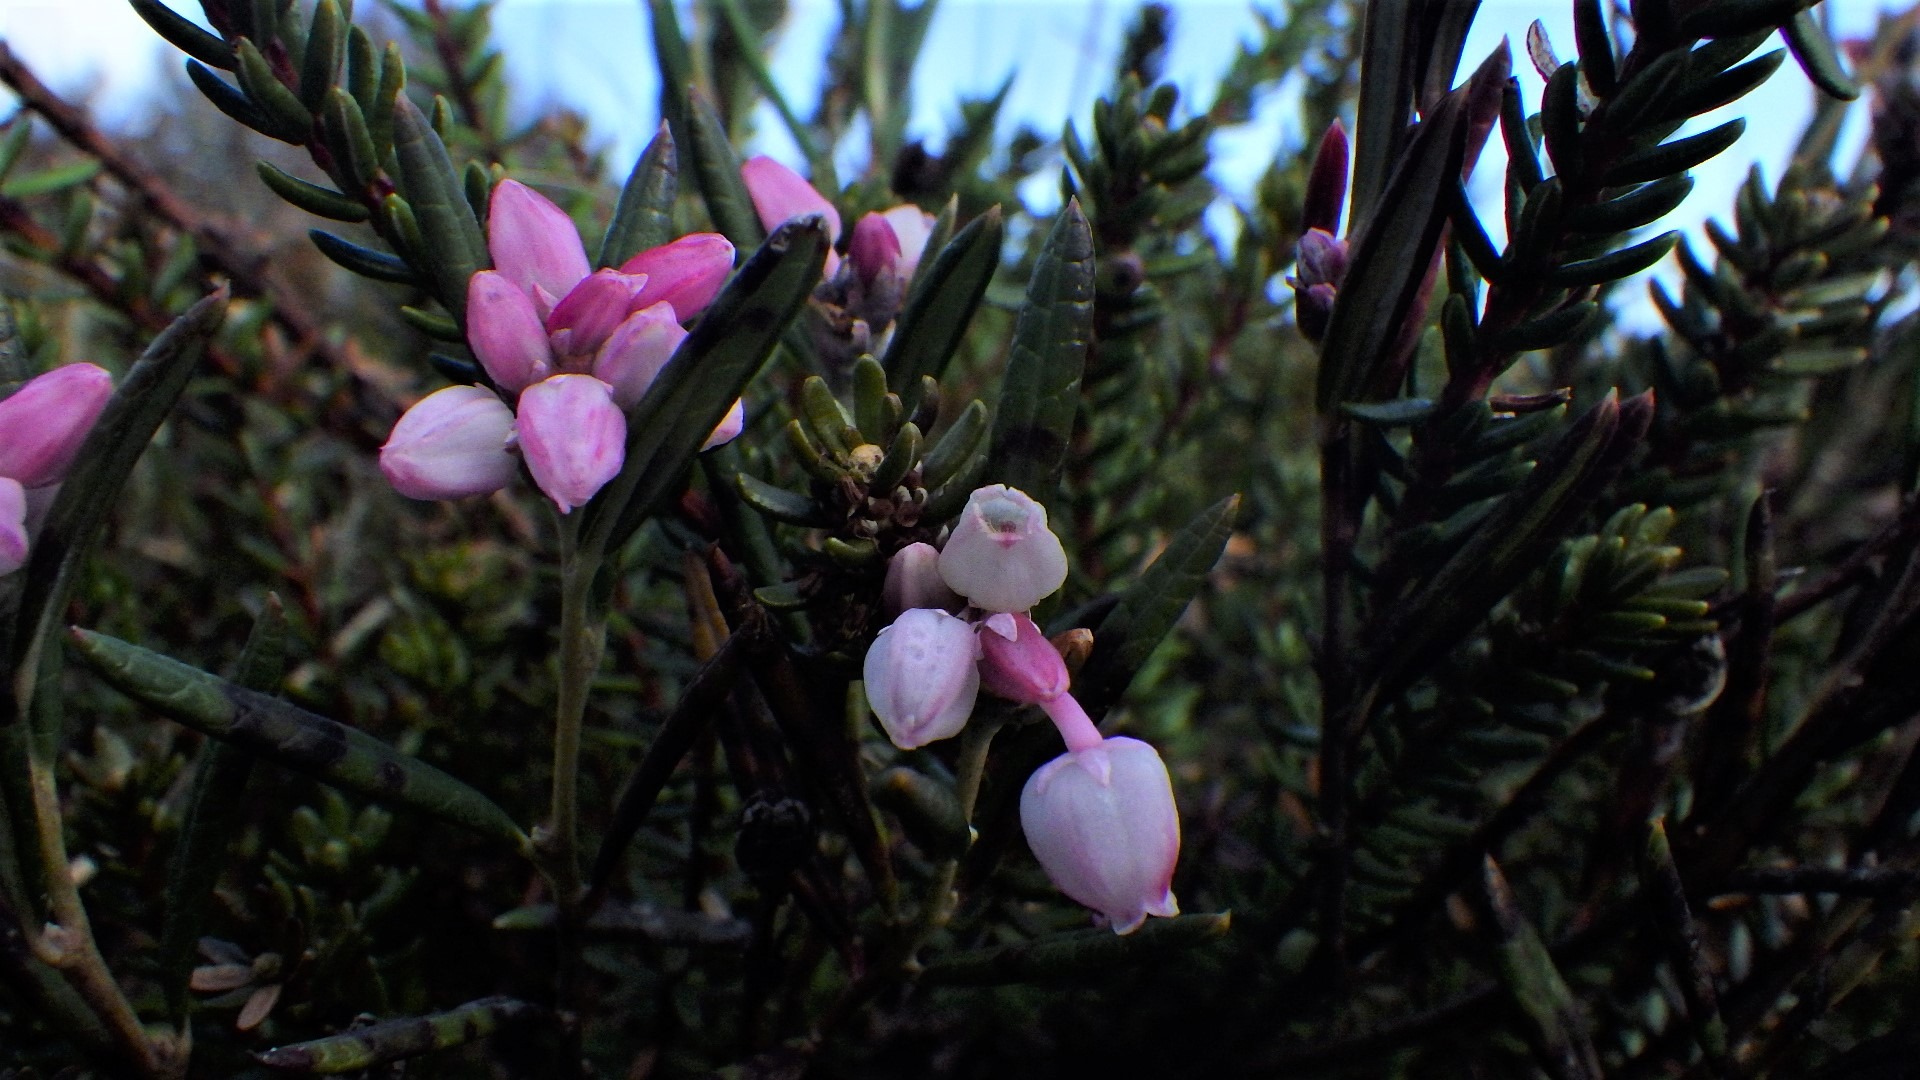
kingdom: Plantae
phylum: Tracheophyta
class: Magnoliopsida
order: Ericales
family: Ericaceae
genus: Andromeda
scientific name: Andromeda polifolia
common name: Rosmarinlyng
